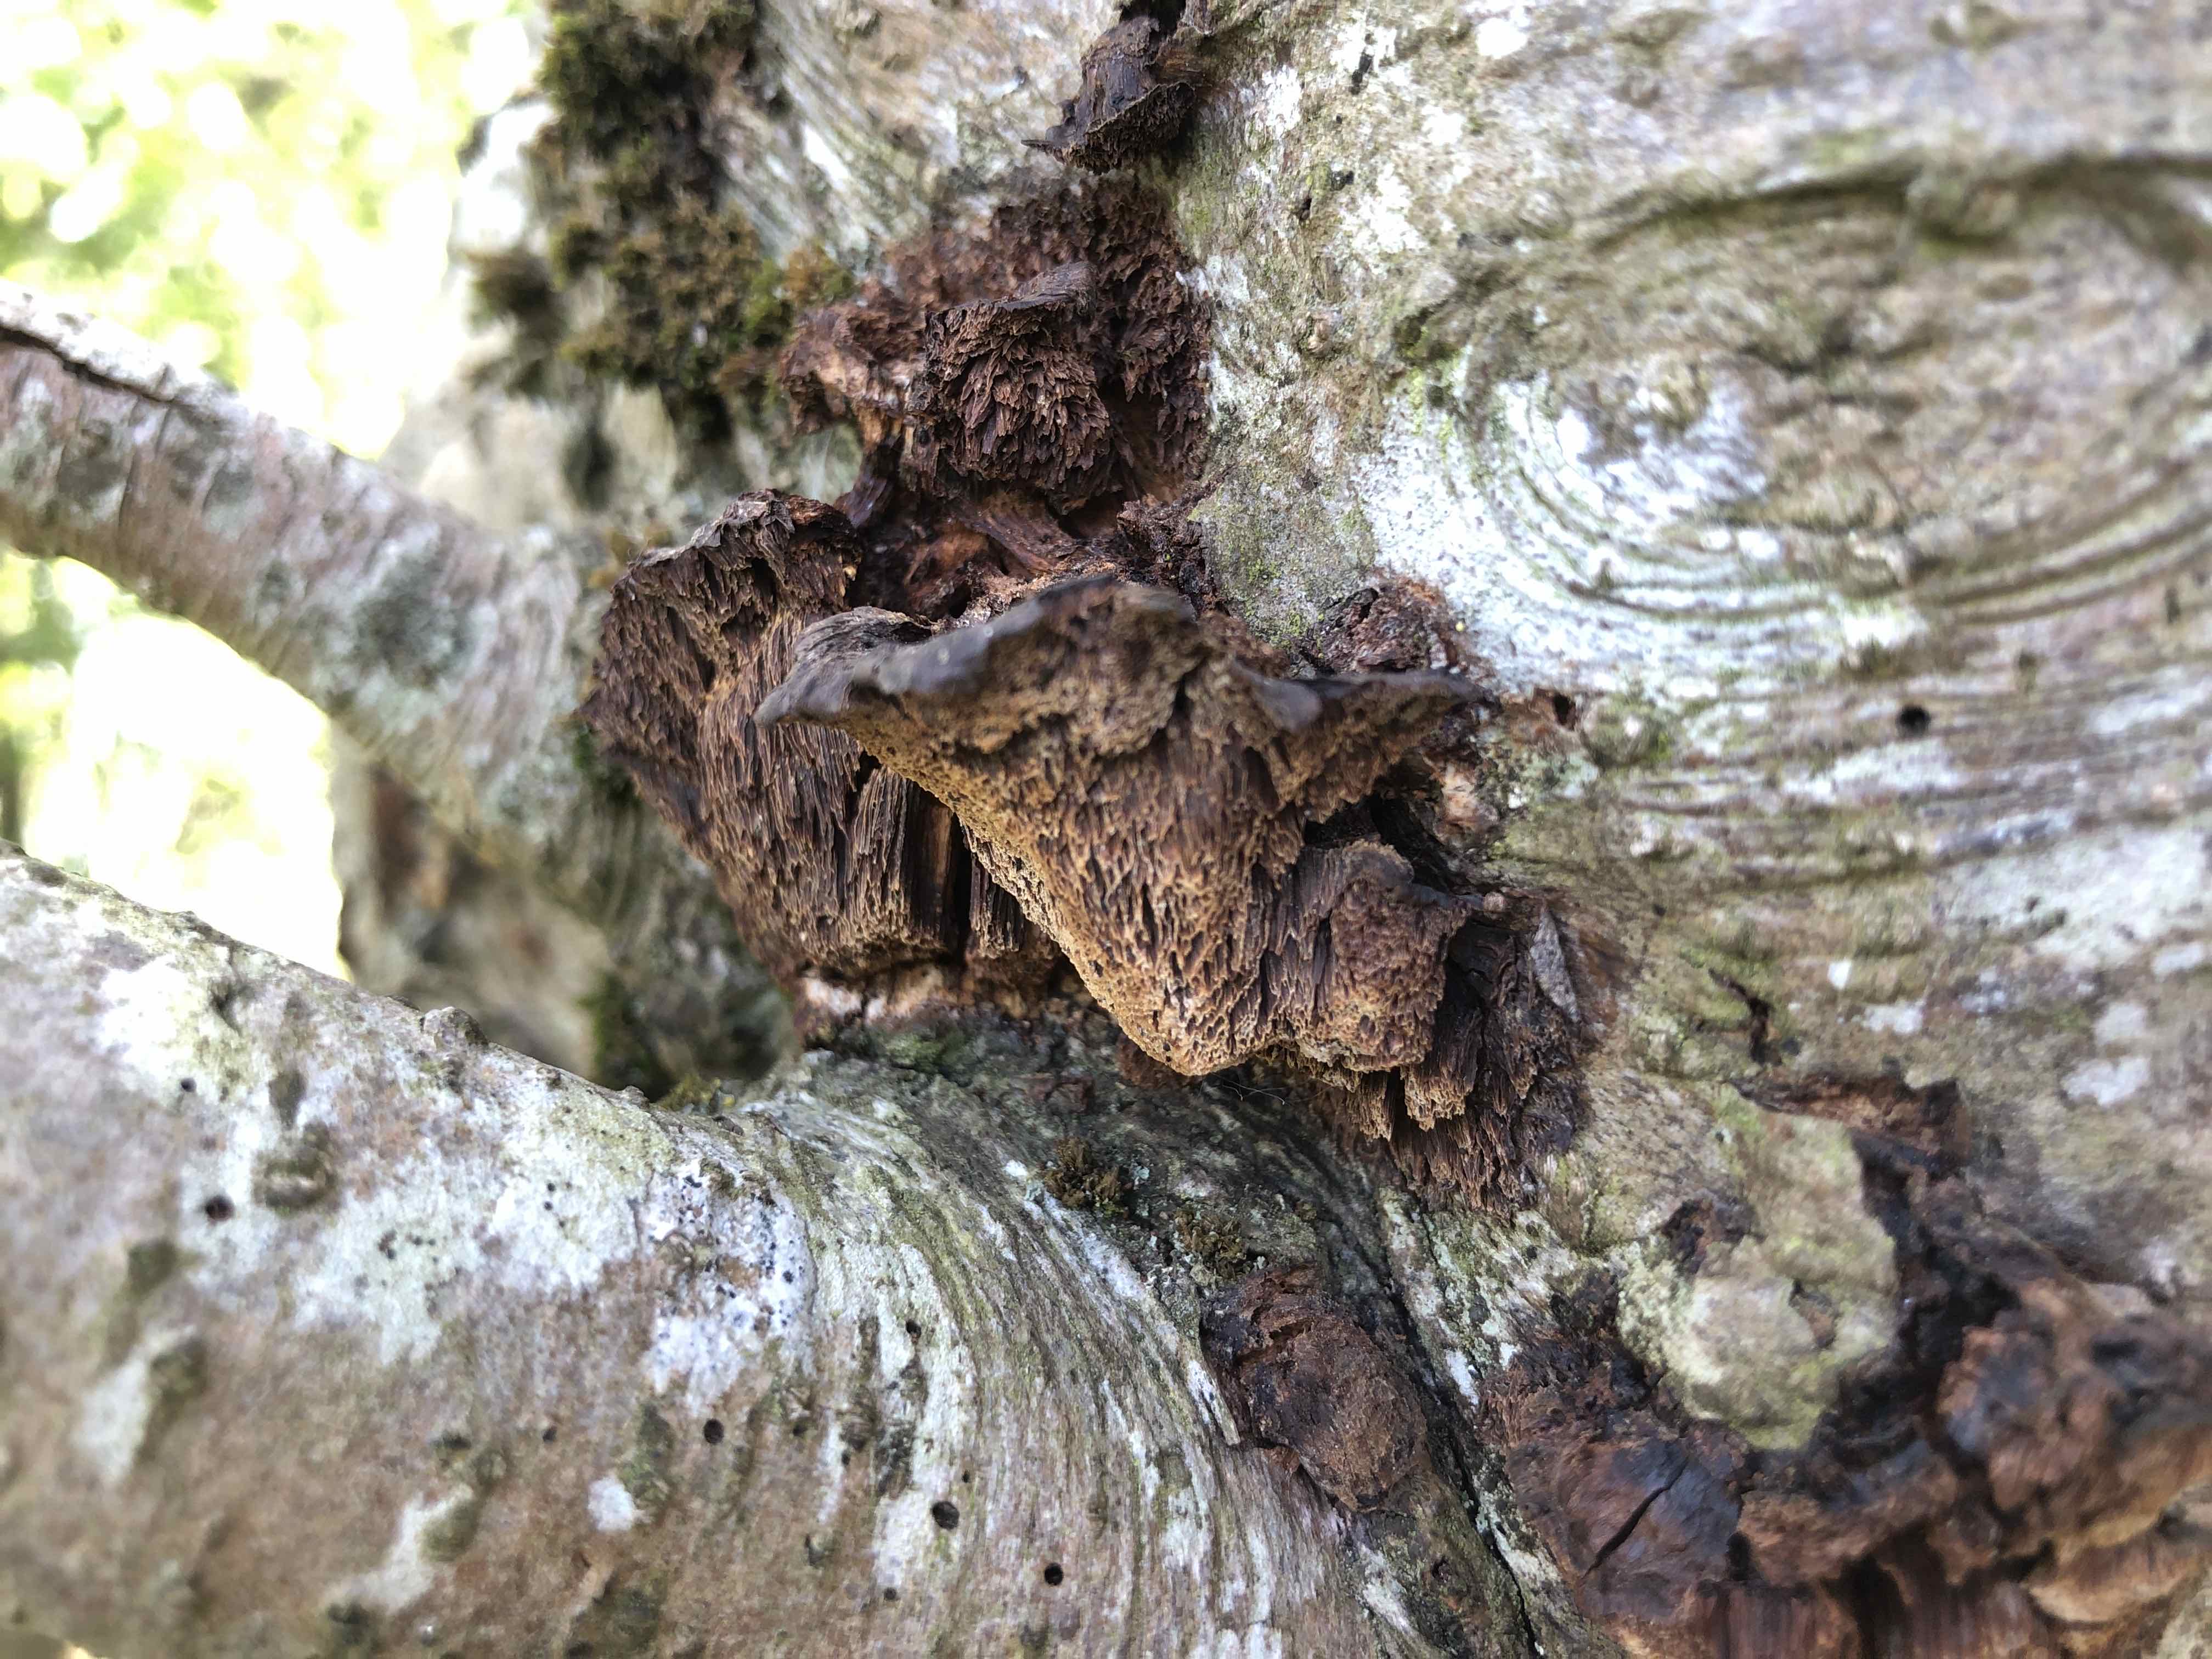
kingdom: Fungi
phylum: Basidiomycota
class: Agaricomycetes
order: Hymenochaetales
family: Hymenochaetaceae
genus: Xanthoporia
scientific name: Xanthoporia radiata
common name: elle-spejlporesvamp
